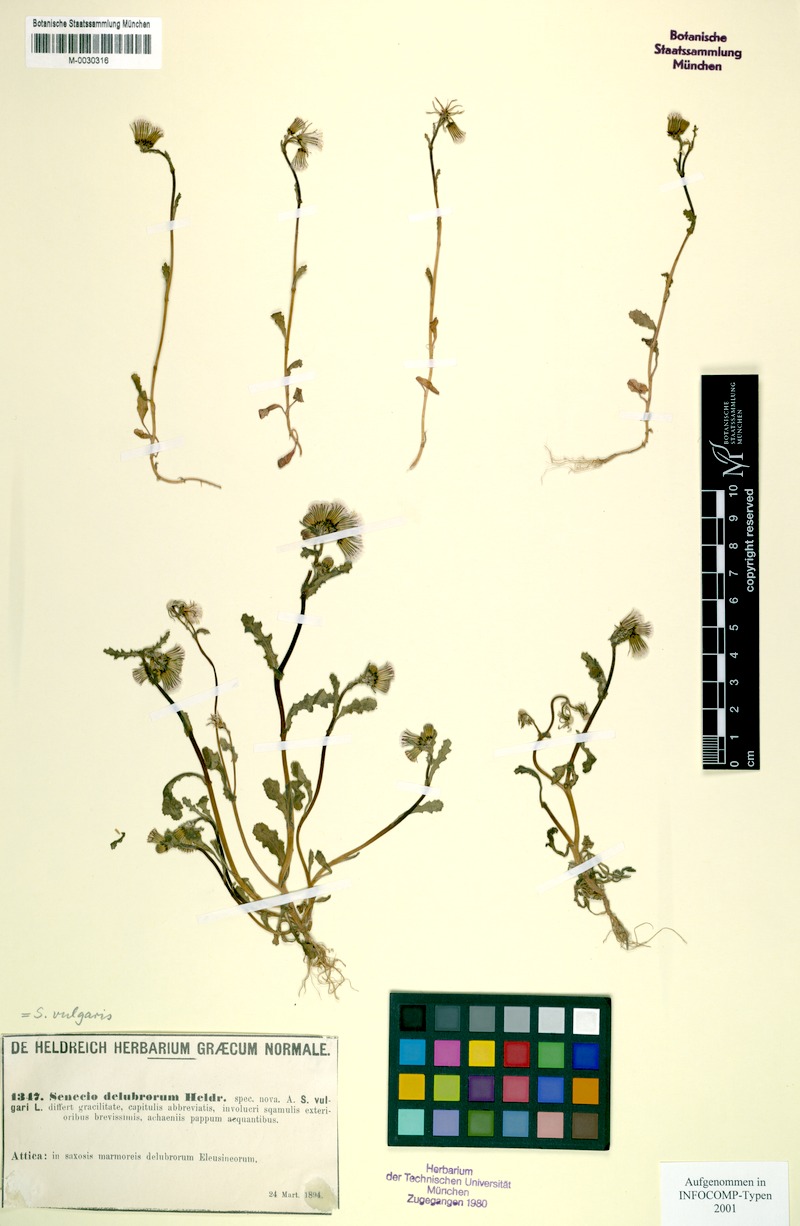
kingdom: Plantae
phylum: Tracheophyta
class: Magnoliopsida
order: Asterales
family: Asteraceae
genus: Senecio
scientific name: Senecio vulgaris
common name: Old-man-in-the-spring
